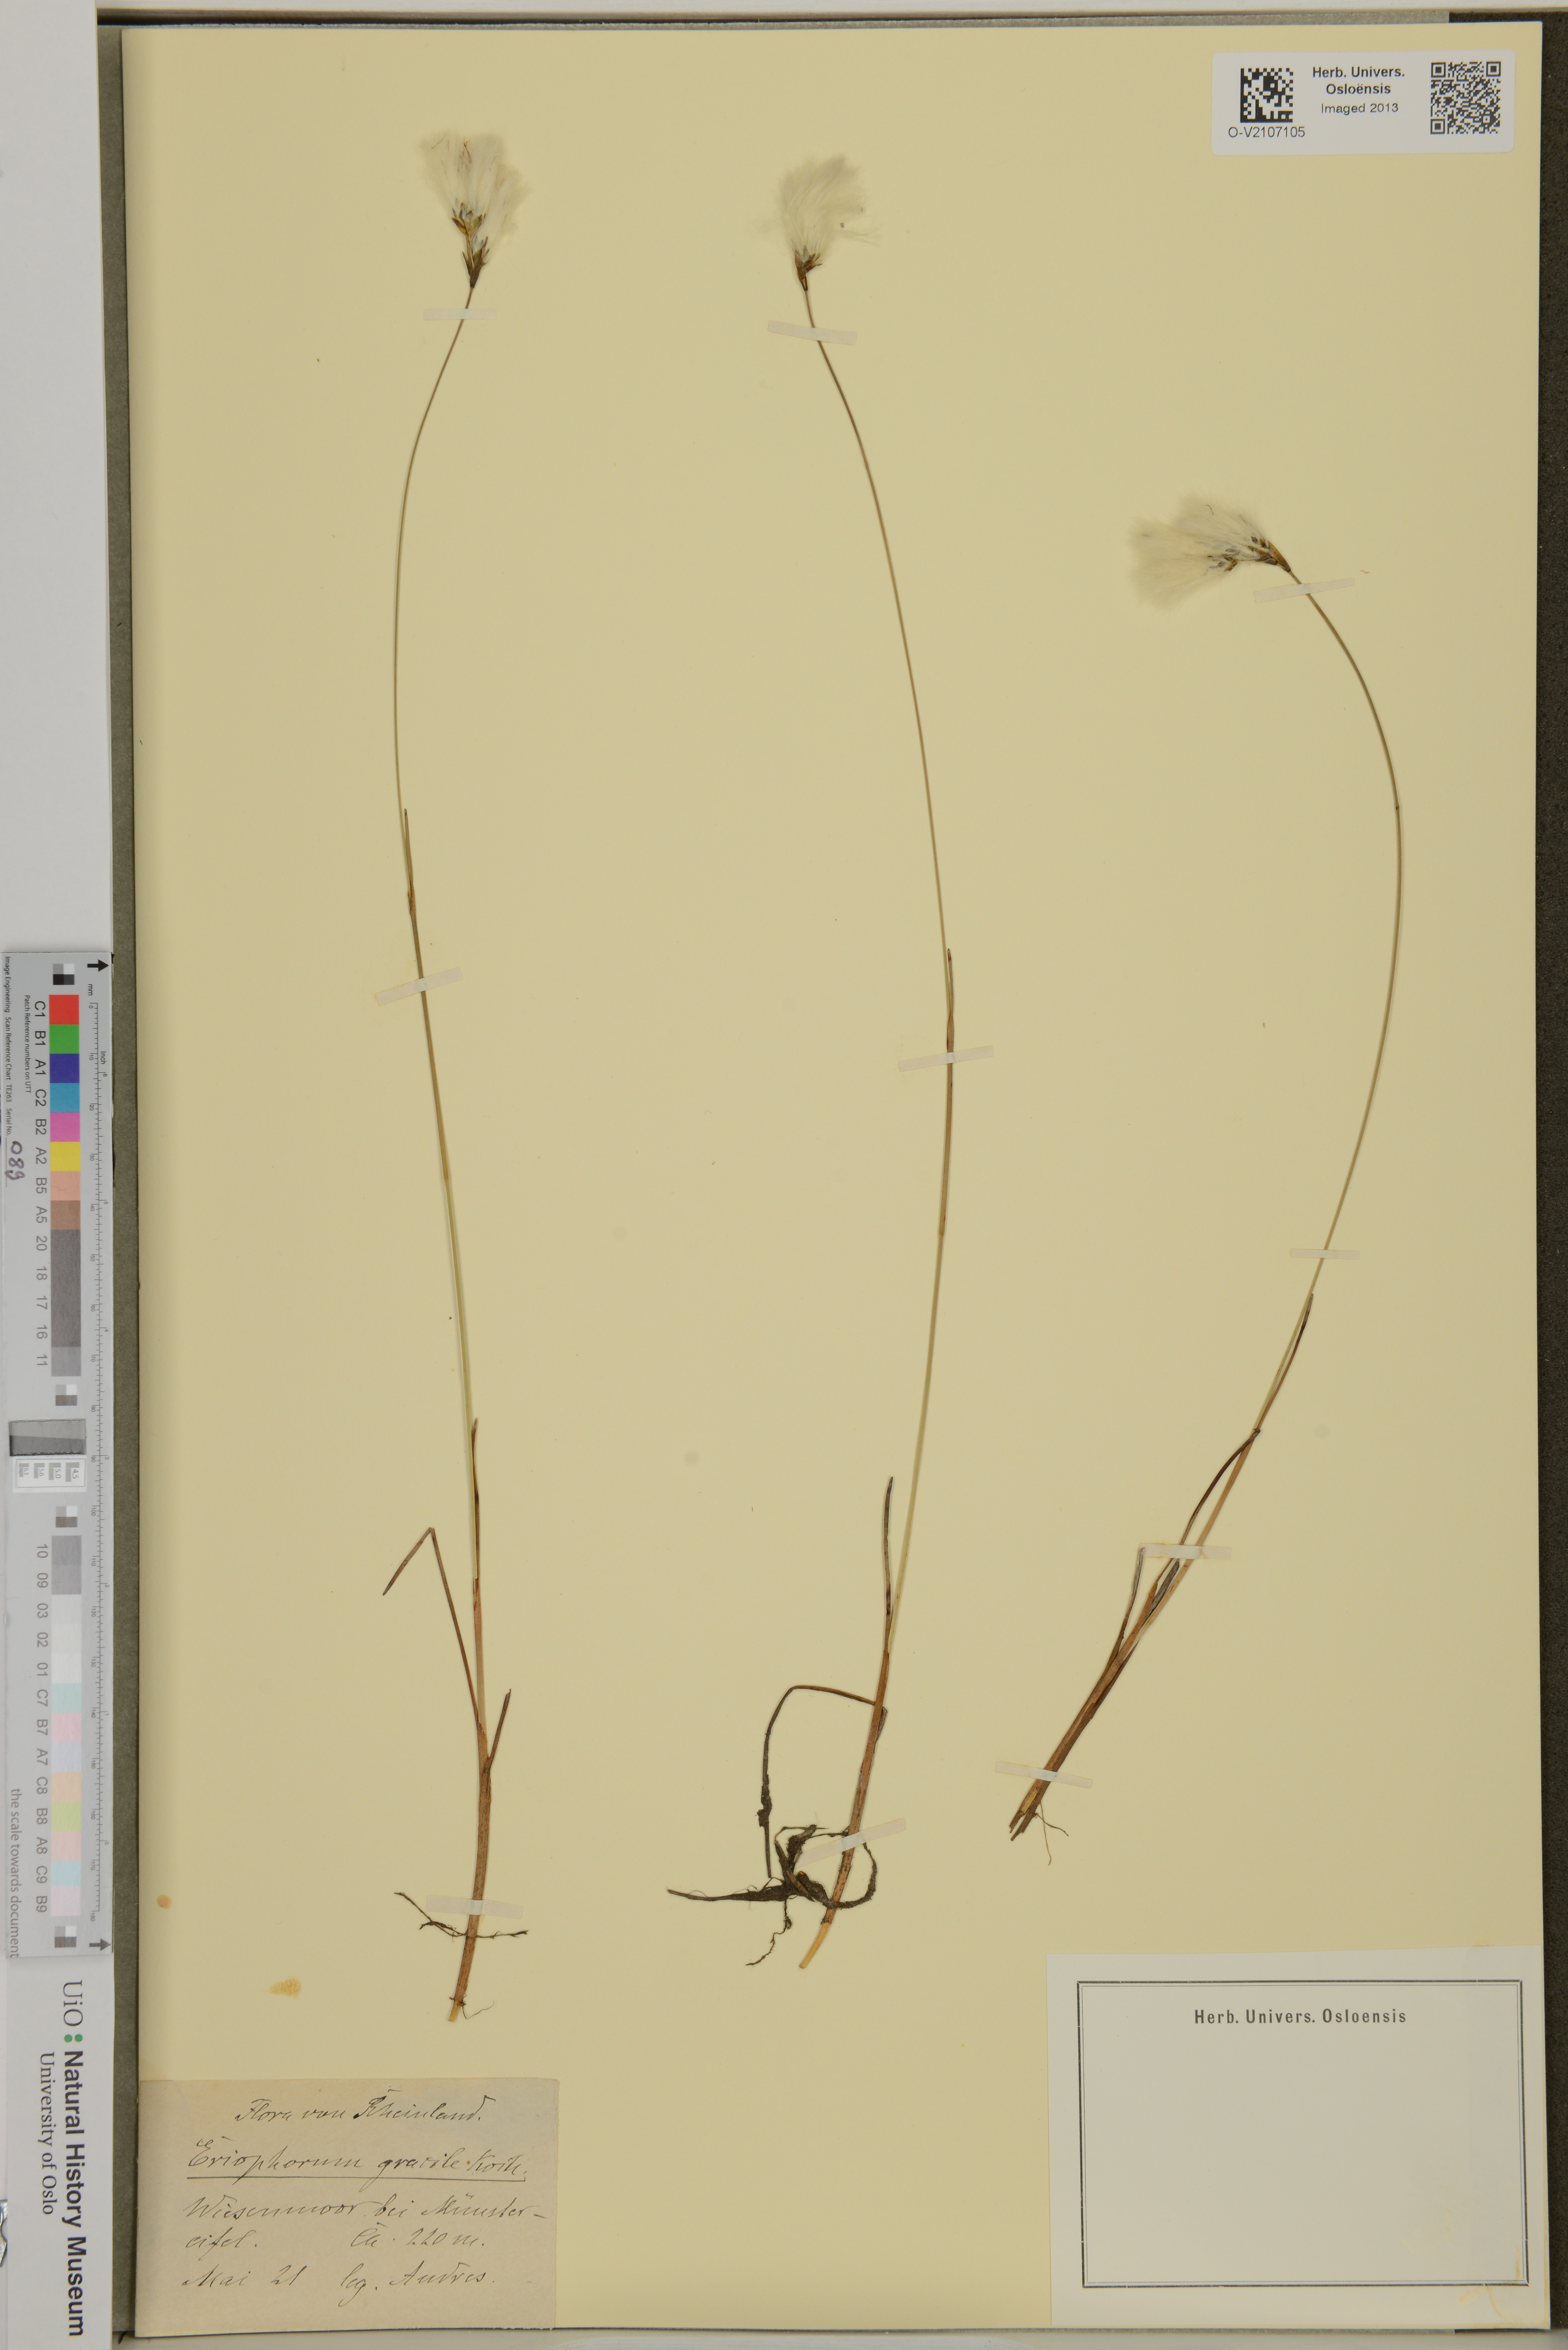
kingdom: Plantae
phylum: Tracheophyta
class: Liliopsida
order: Poales
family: Cyperaceae
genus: Eriophorum
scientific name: Eriophorum gracile
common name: Slender cottongrass
